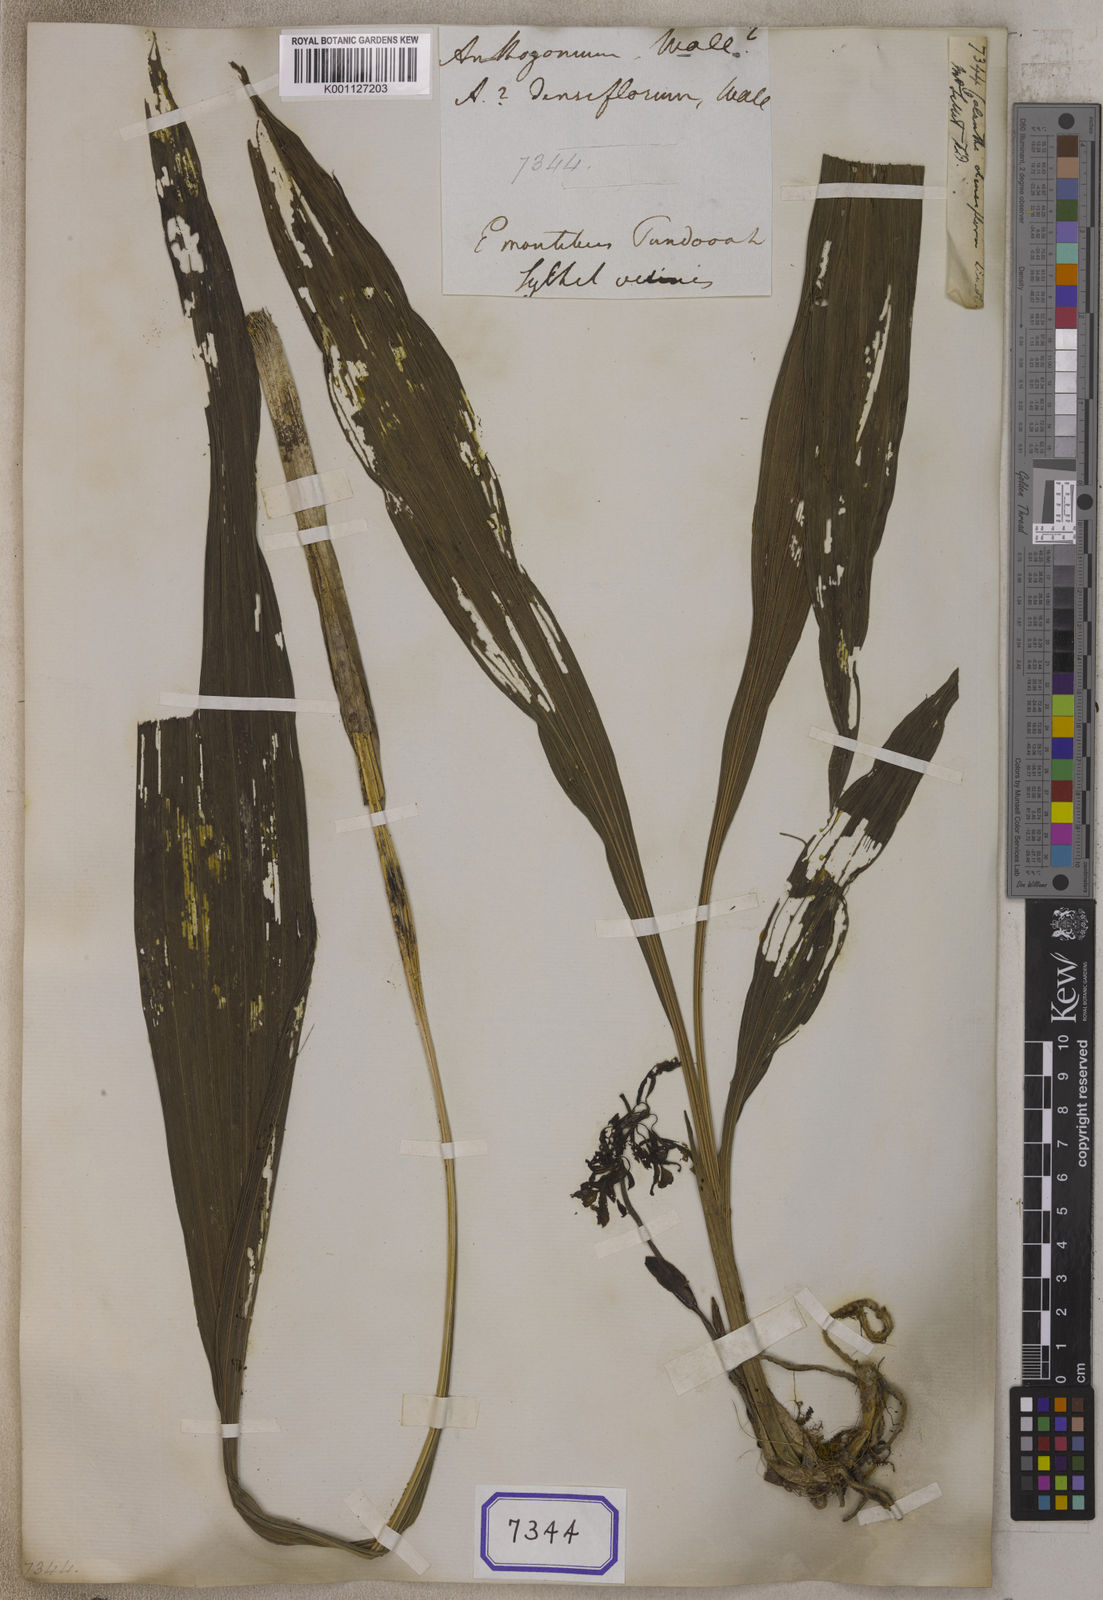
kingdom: Plantae
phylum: Tracheophyta
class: Liliopsida
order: Asparagales
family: Orchidaceae
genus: Calanthe
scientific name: Calanthe densiflora
